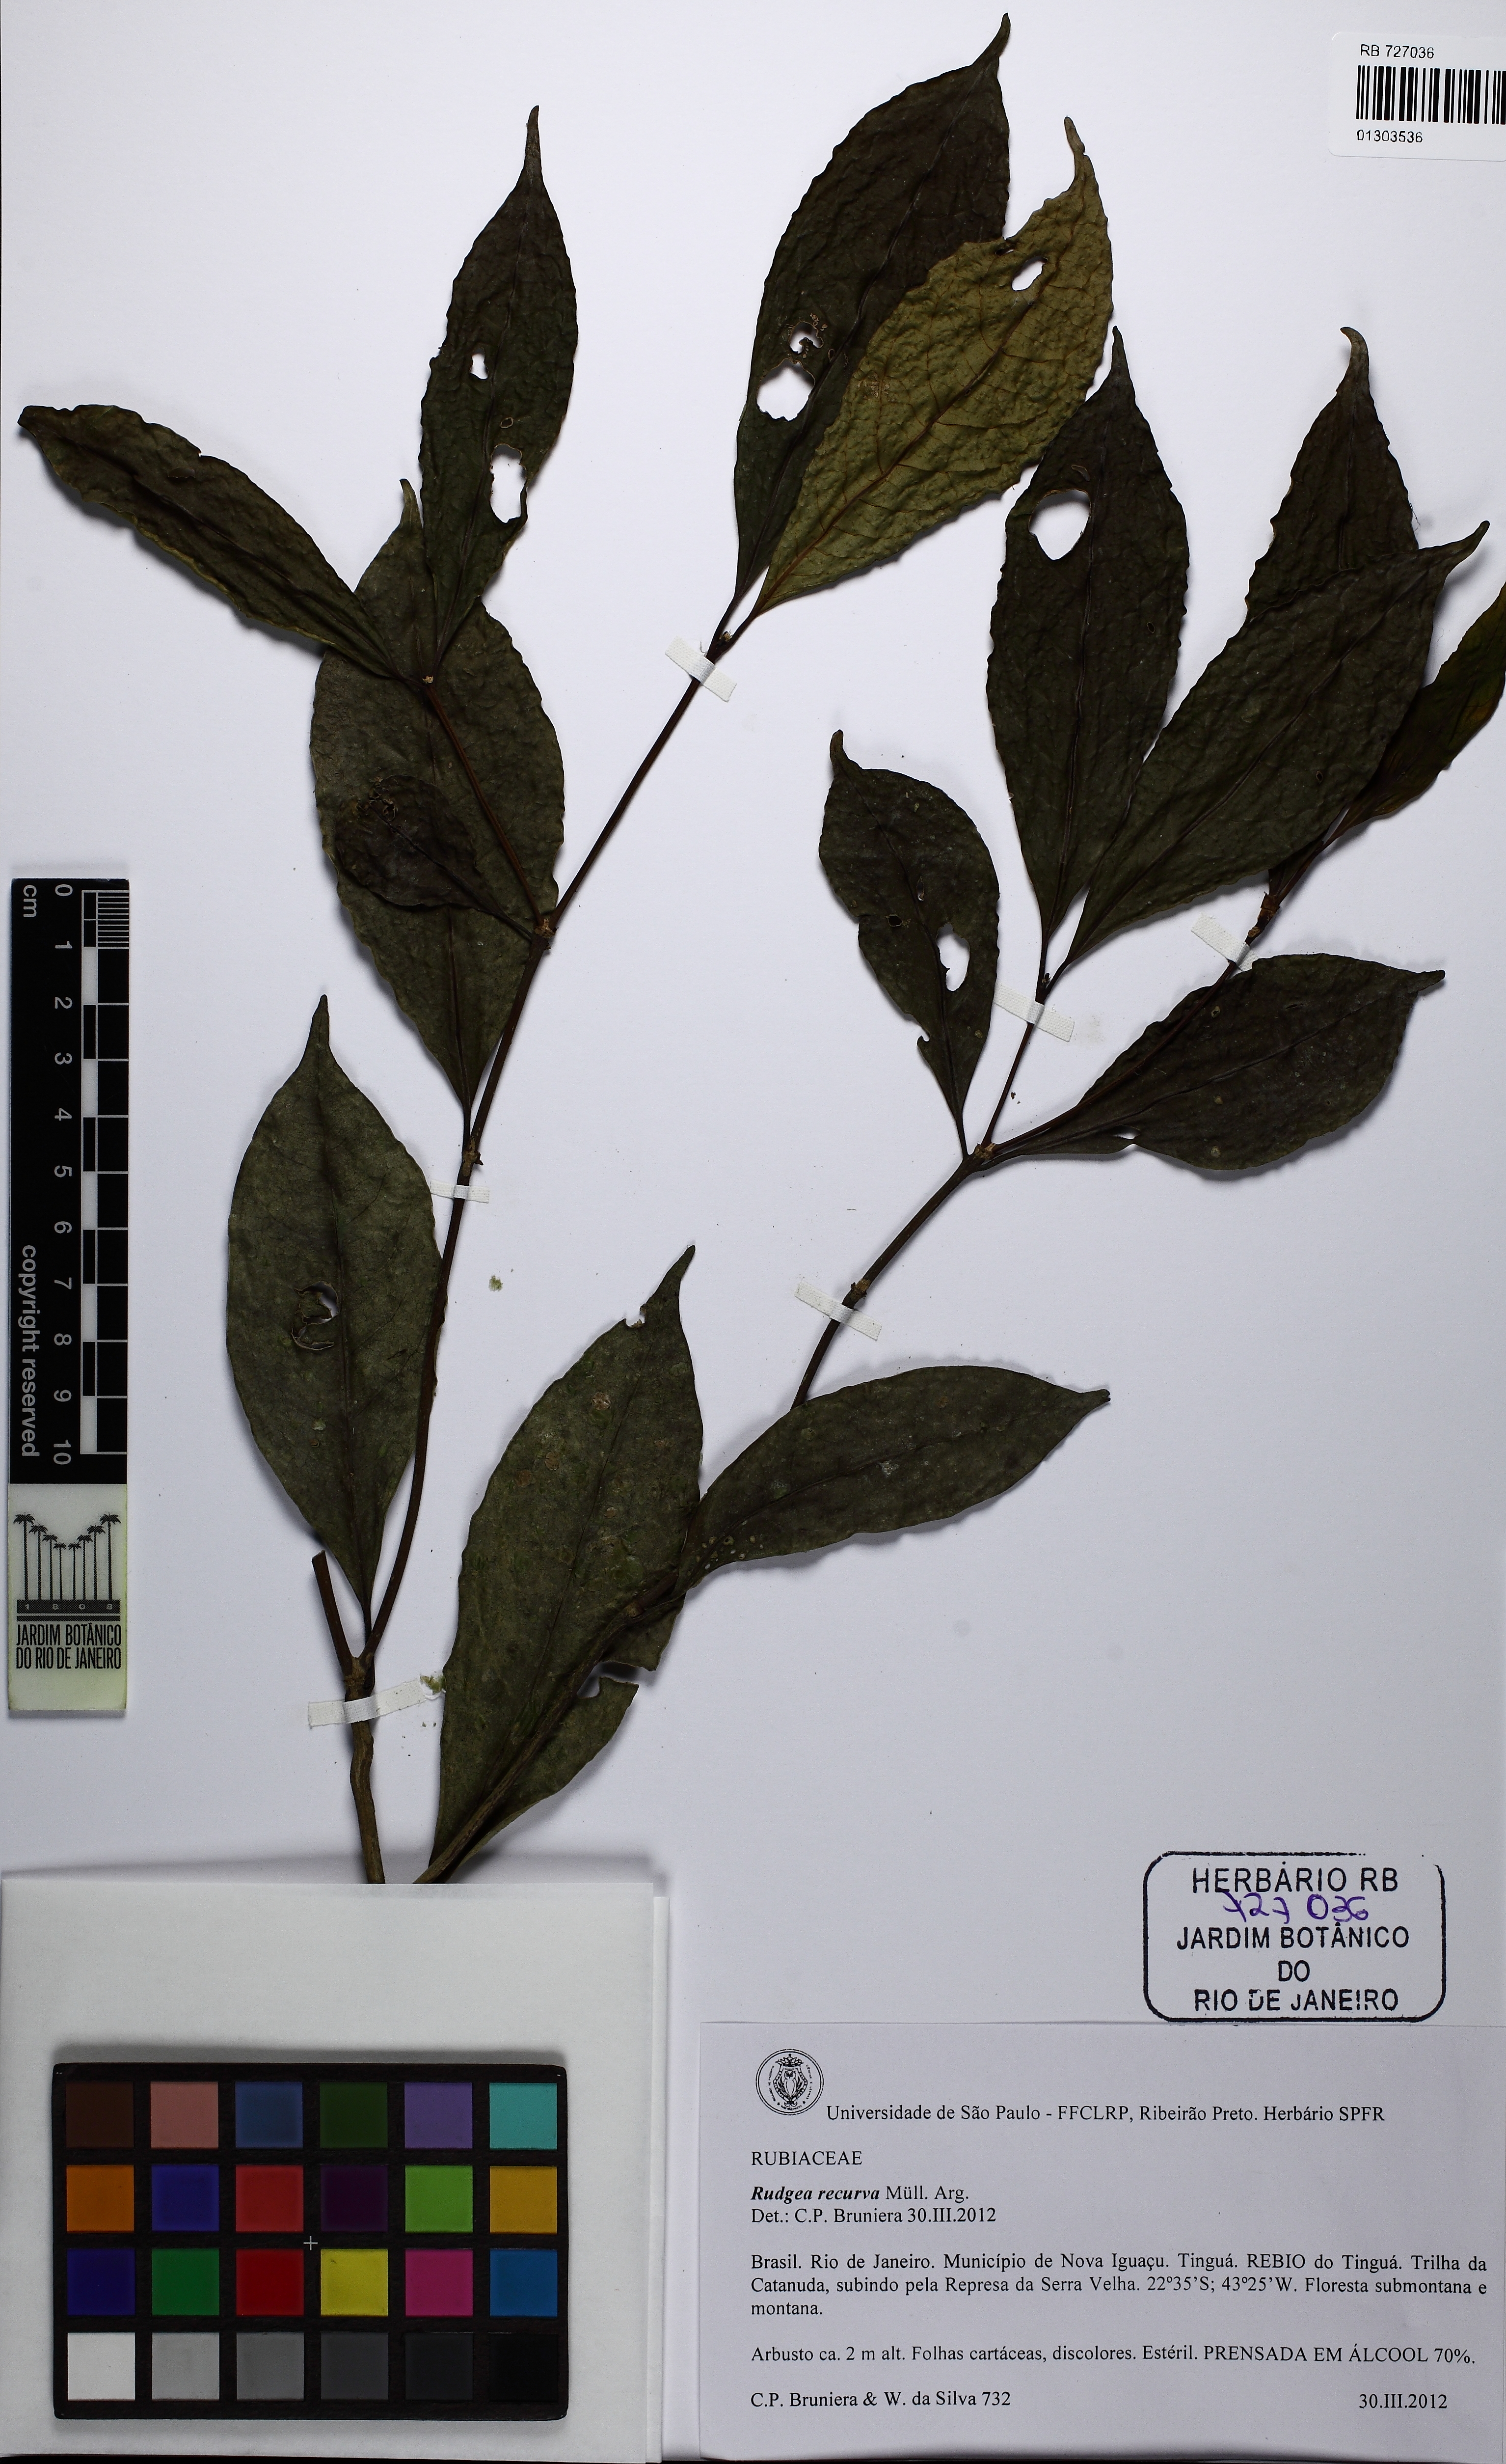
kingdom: Plantae
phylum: Tracheophyta
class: Magnoliopsida
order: Gentianales
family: Rubiaceae
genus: Rudgea
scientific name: Rudgea recurva
